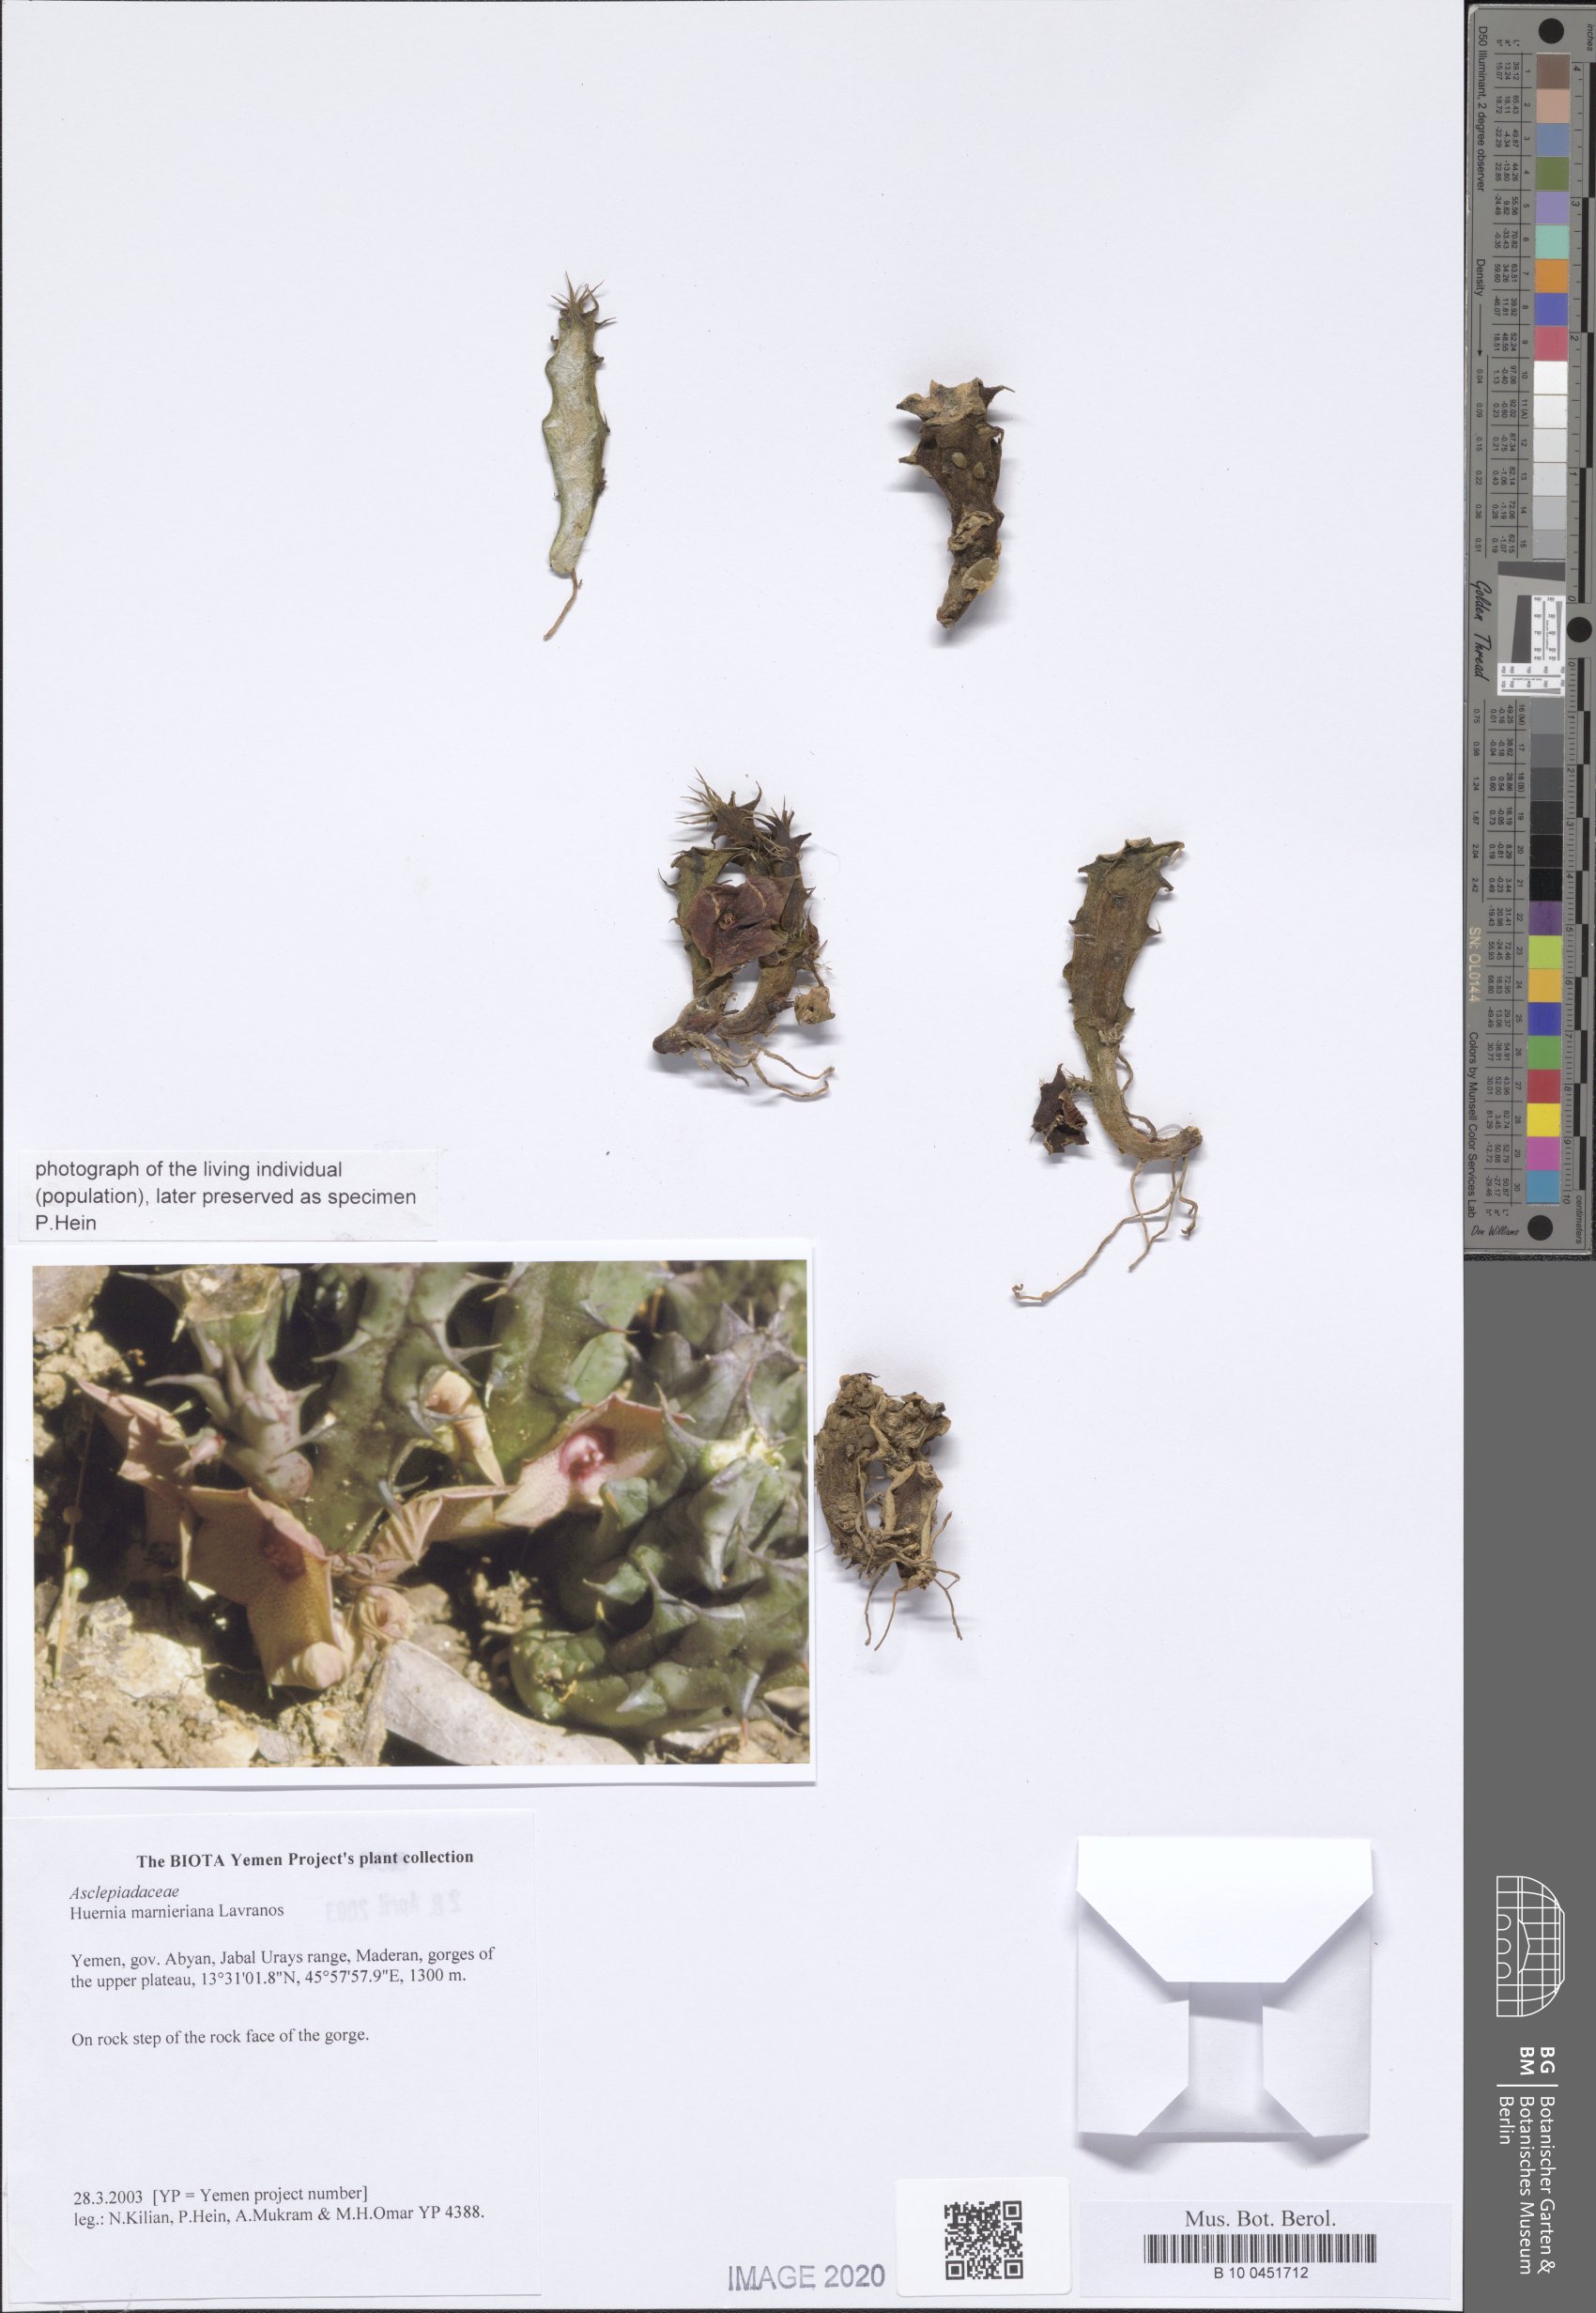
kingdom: Plantae
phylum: Tracheophyta
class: Magnoliopsida
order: Gentianales
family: Apocynaceae
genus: Ceropegia
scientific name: Ceropegia marnierana
